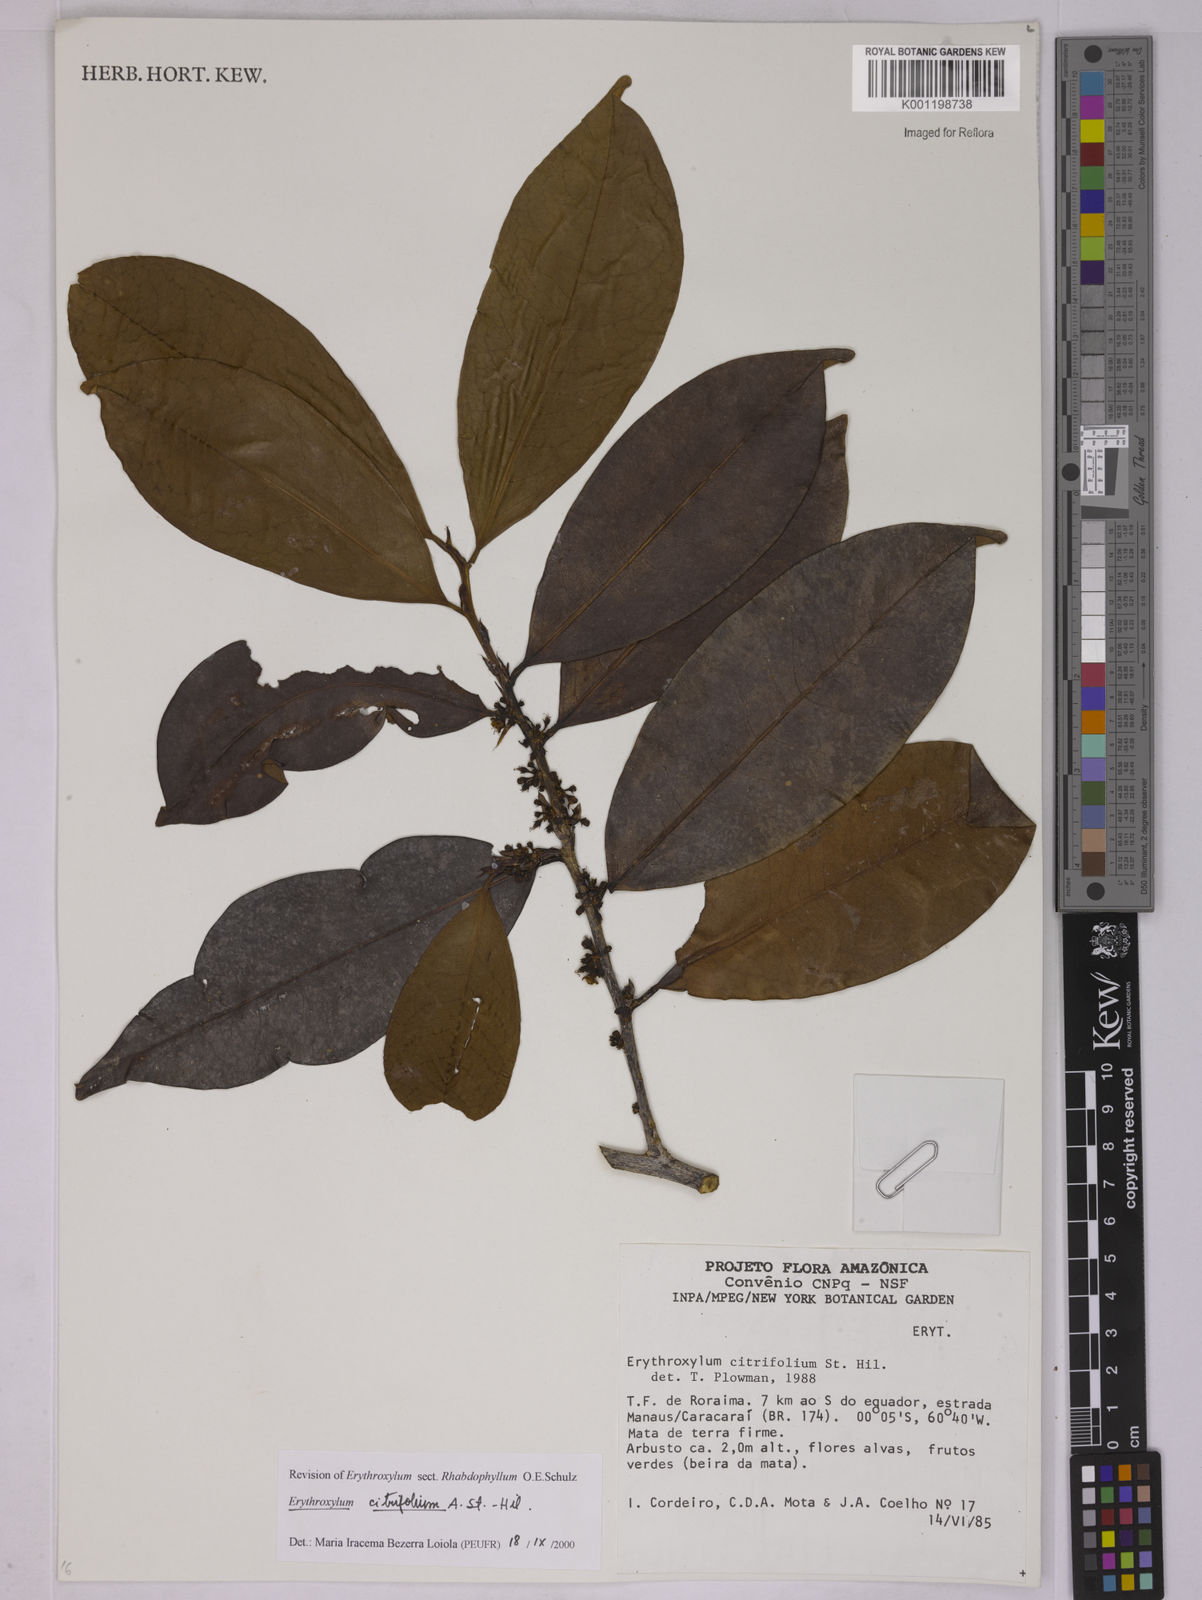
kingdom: Plantae
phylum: Tracheophyta
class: Magnoliopsida
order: Malpighiales
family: Erythroxylaceae
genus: Erythroxylum
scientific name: Erythroxylum citrifolium
